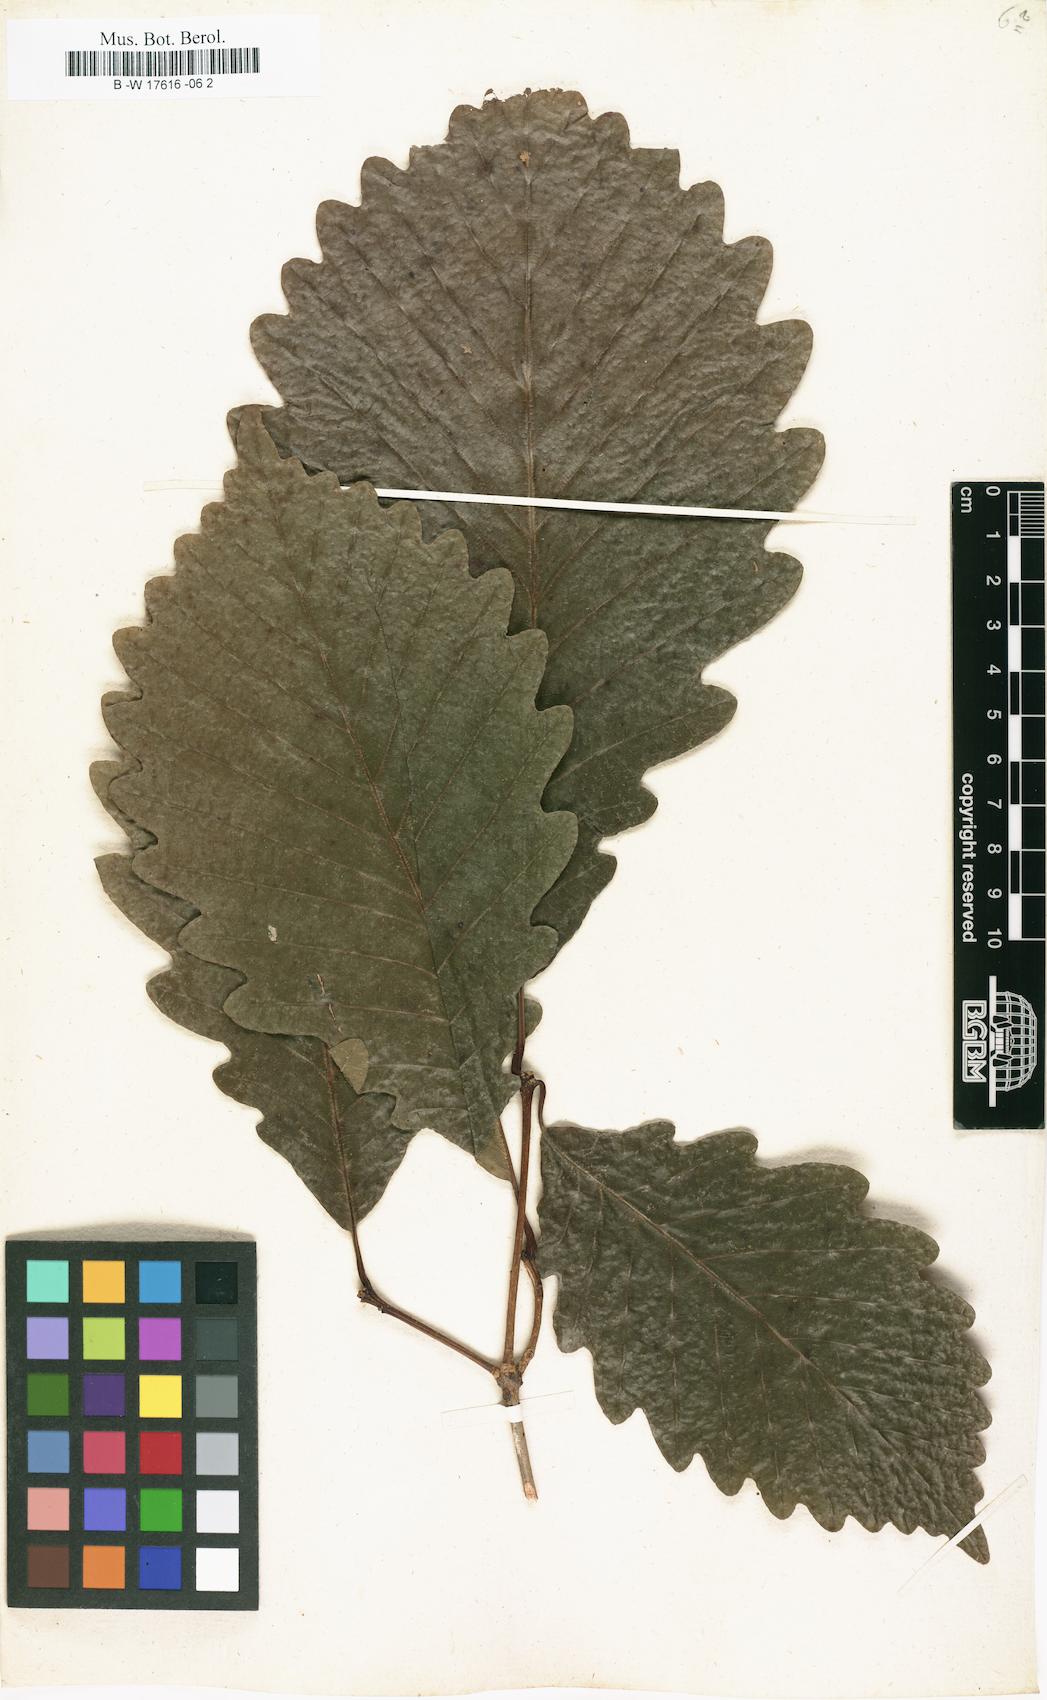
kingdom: Plantae
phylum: Tracheophyta
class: Magnoliopsida
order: Fagales
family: Fagaceae
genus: Quercus
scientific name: Quercus michauxii
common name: Swamp chestnut oak
